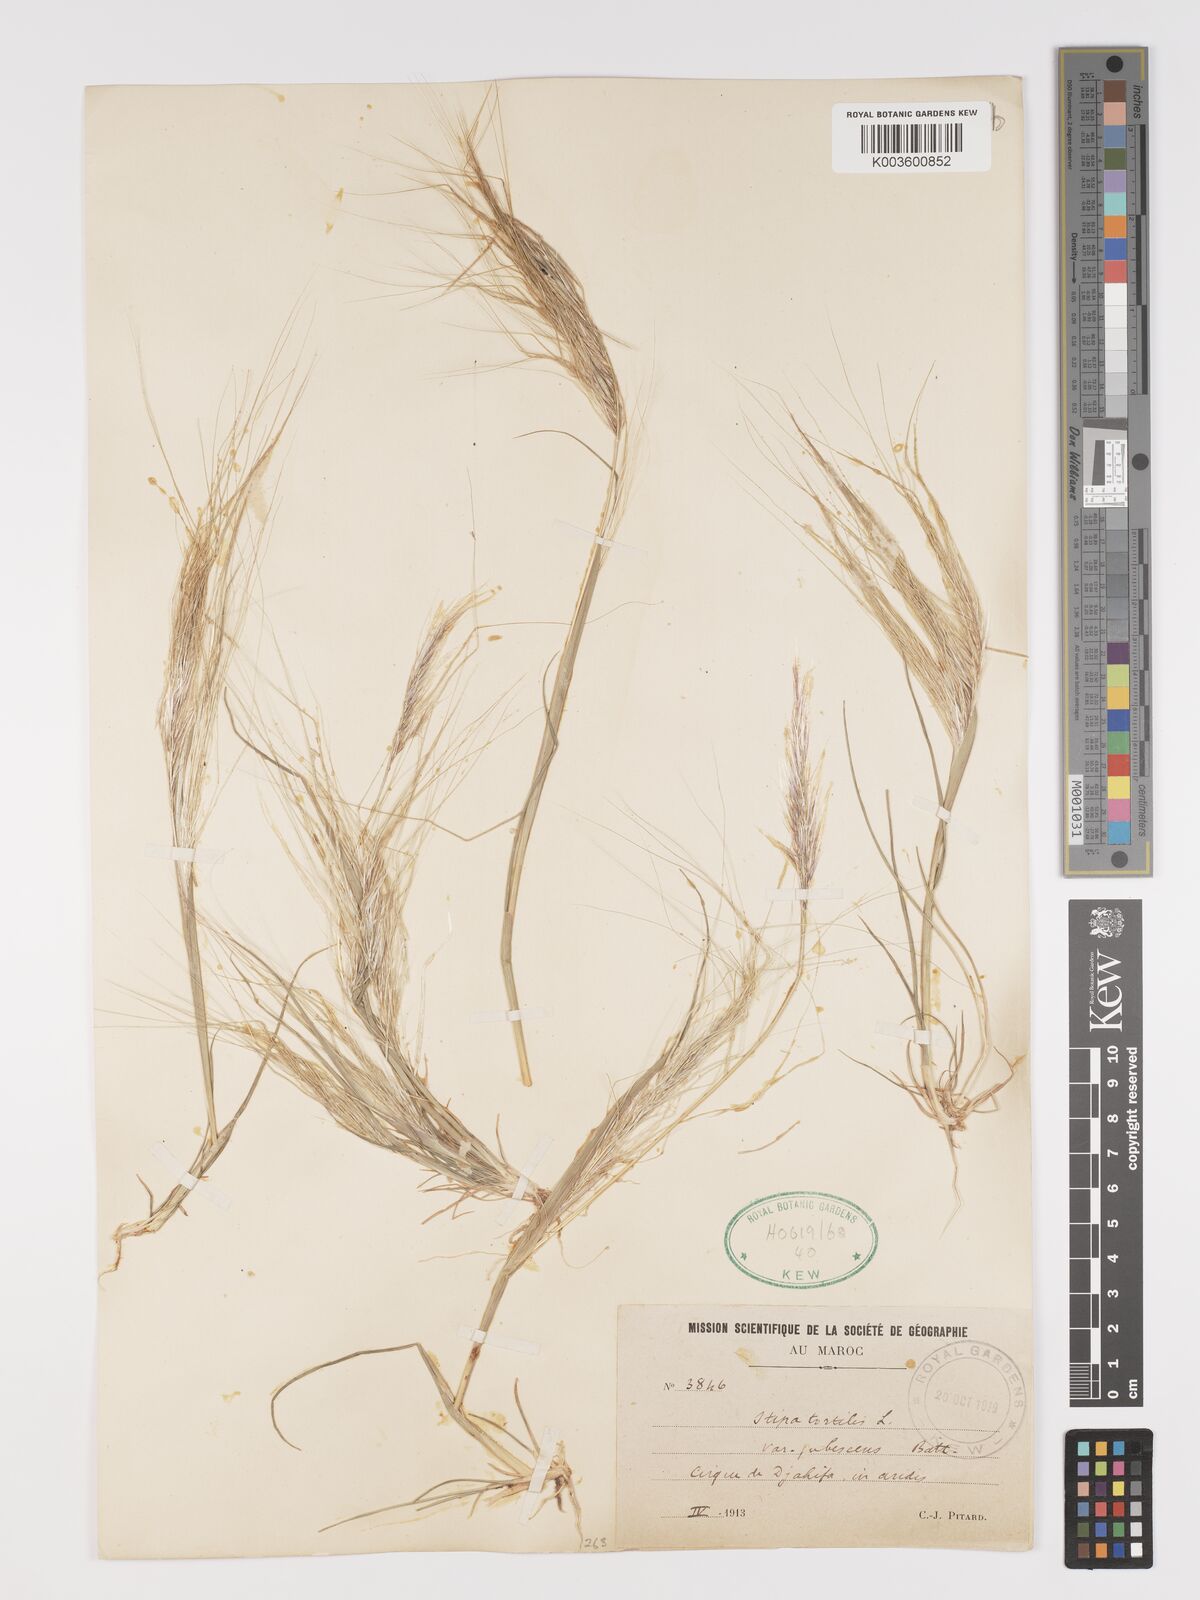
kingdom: Plantae
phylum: Tracheophyta
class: Liliopsida
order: Poales
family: Poaceae
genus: Stipellula
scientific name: Stipellula capensis
